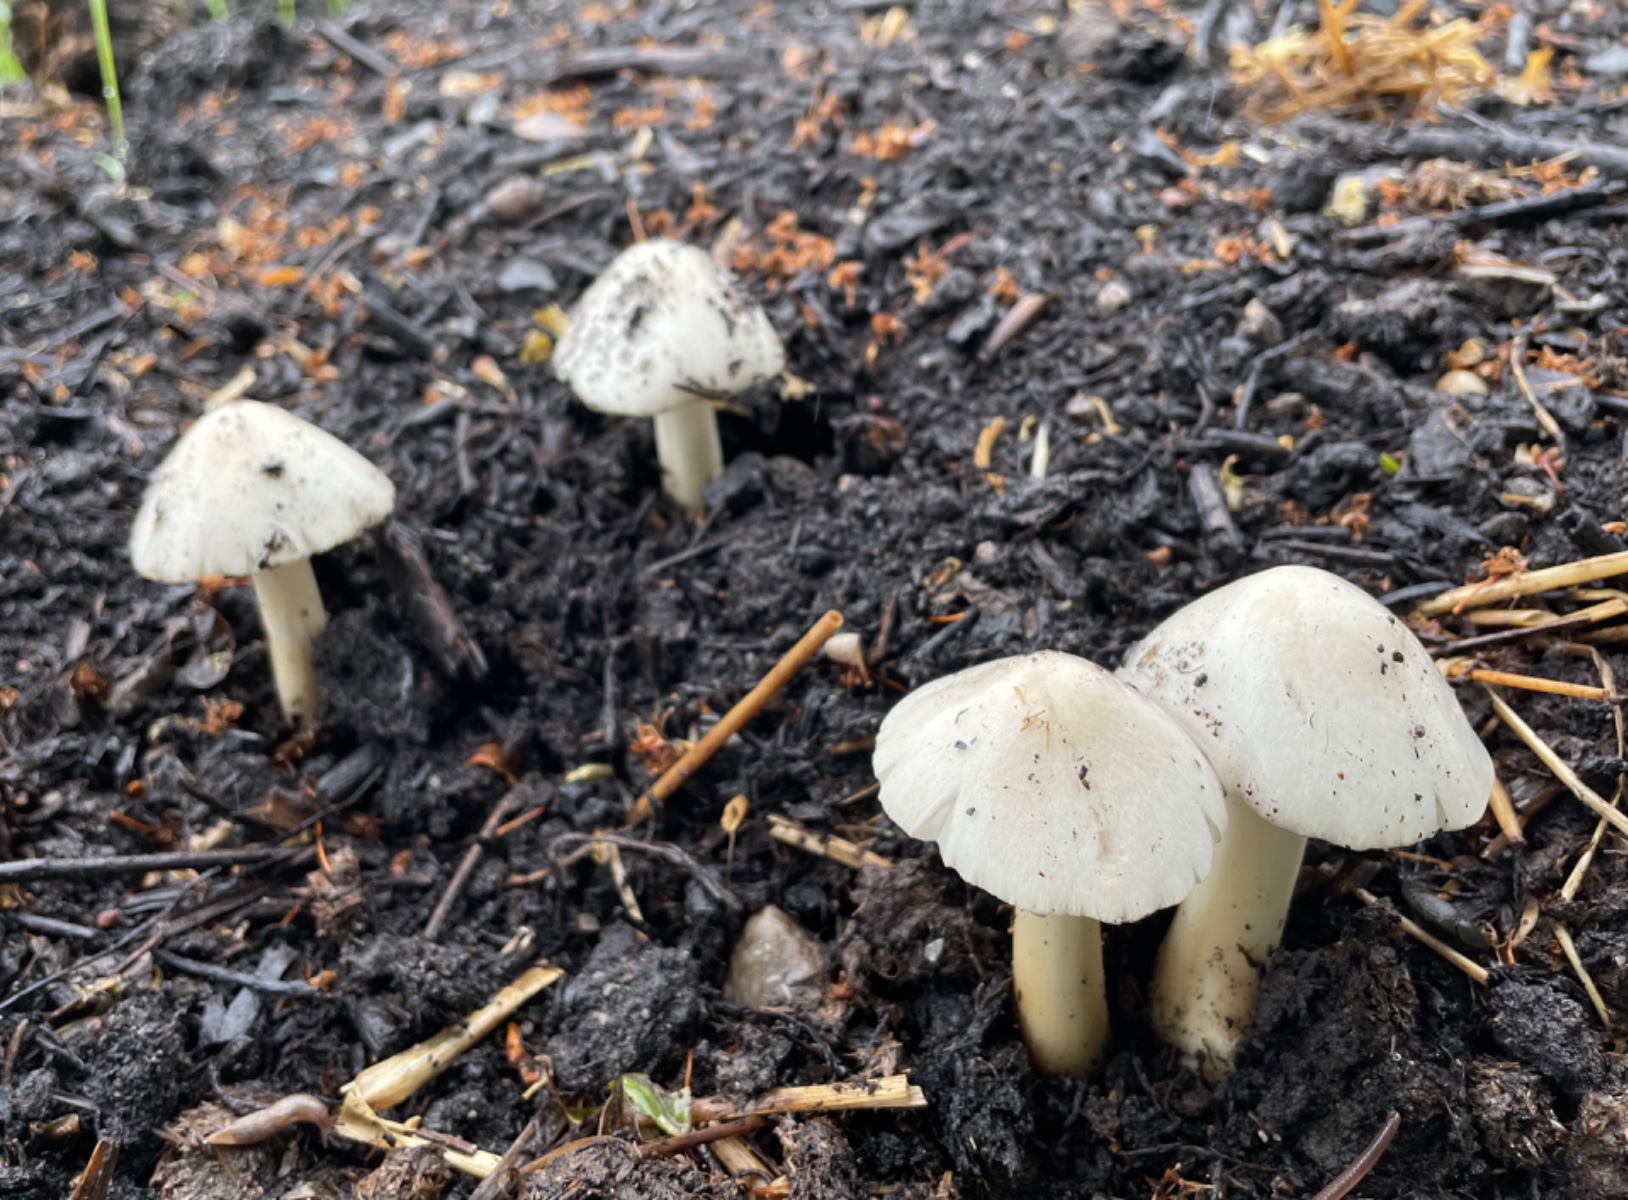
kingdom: Fungi
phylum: Basidiomycota
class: Agaricomycetes
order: Agaricales
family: Pluteaceae
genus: Volvopluteus
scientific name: Volvopluteus gloiocephalus
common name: høj posesvamp
